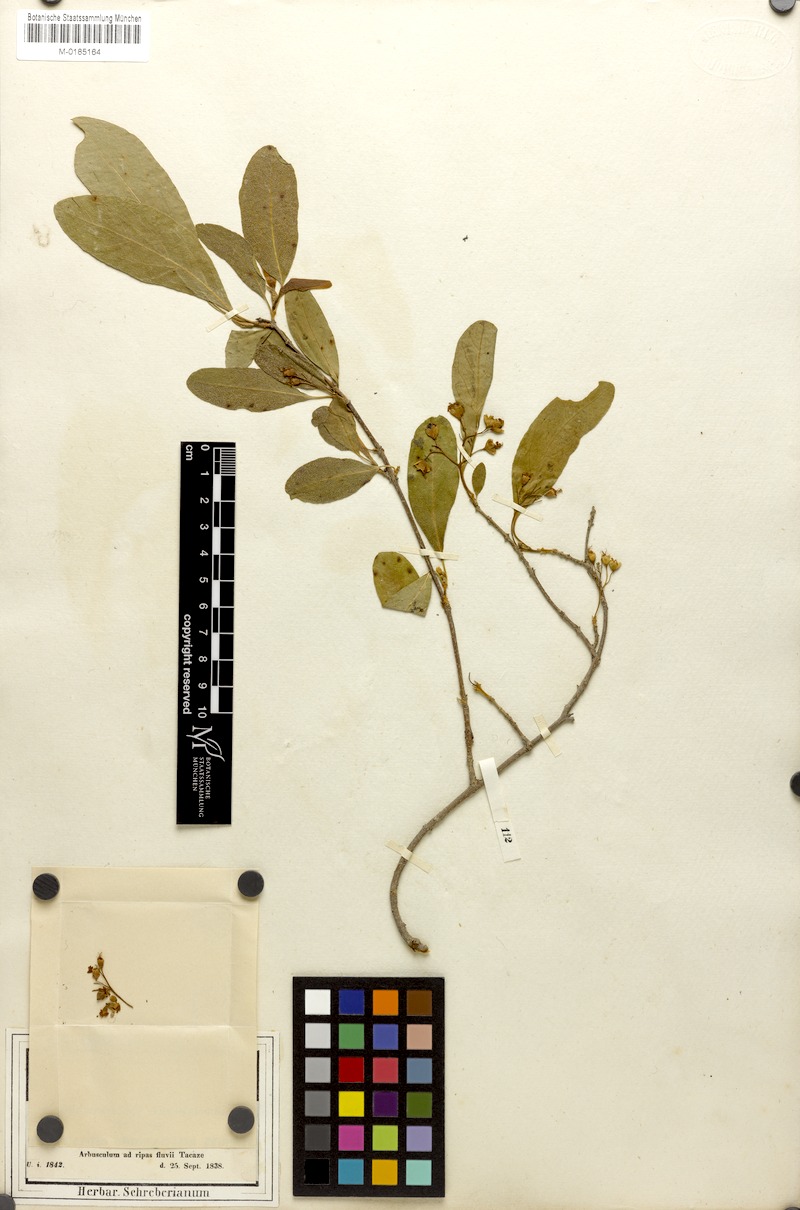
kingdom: Plantae
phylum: Tracheophyta
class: Magnoliopsida
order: Boraginales
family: Cordiaceae
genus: Cordia
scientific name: Cordia sinensis
